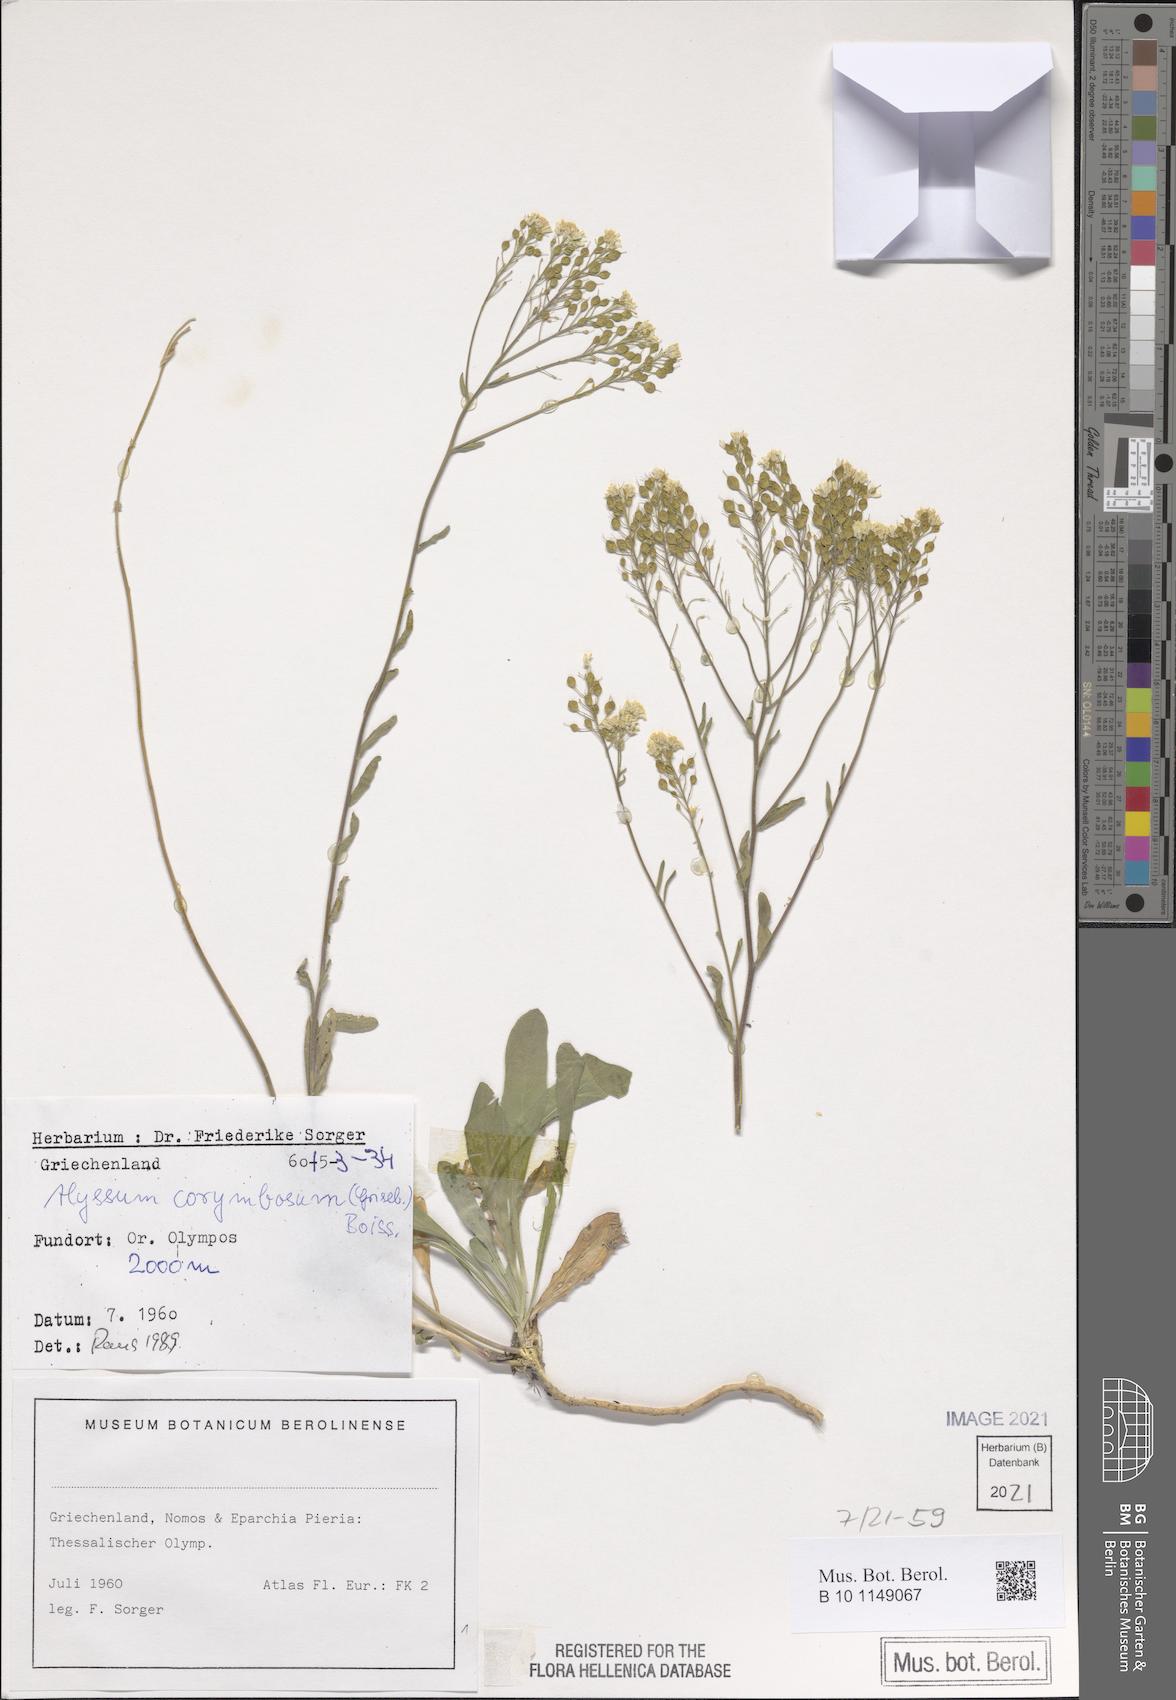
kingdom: Plantae
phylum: Tracheophyta
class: Magnoliopsida
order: Brassicales
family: Brassicaceae
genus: Aurinia
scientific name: Aurinia corymbosa
